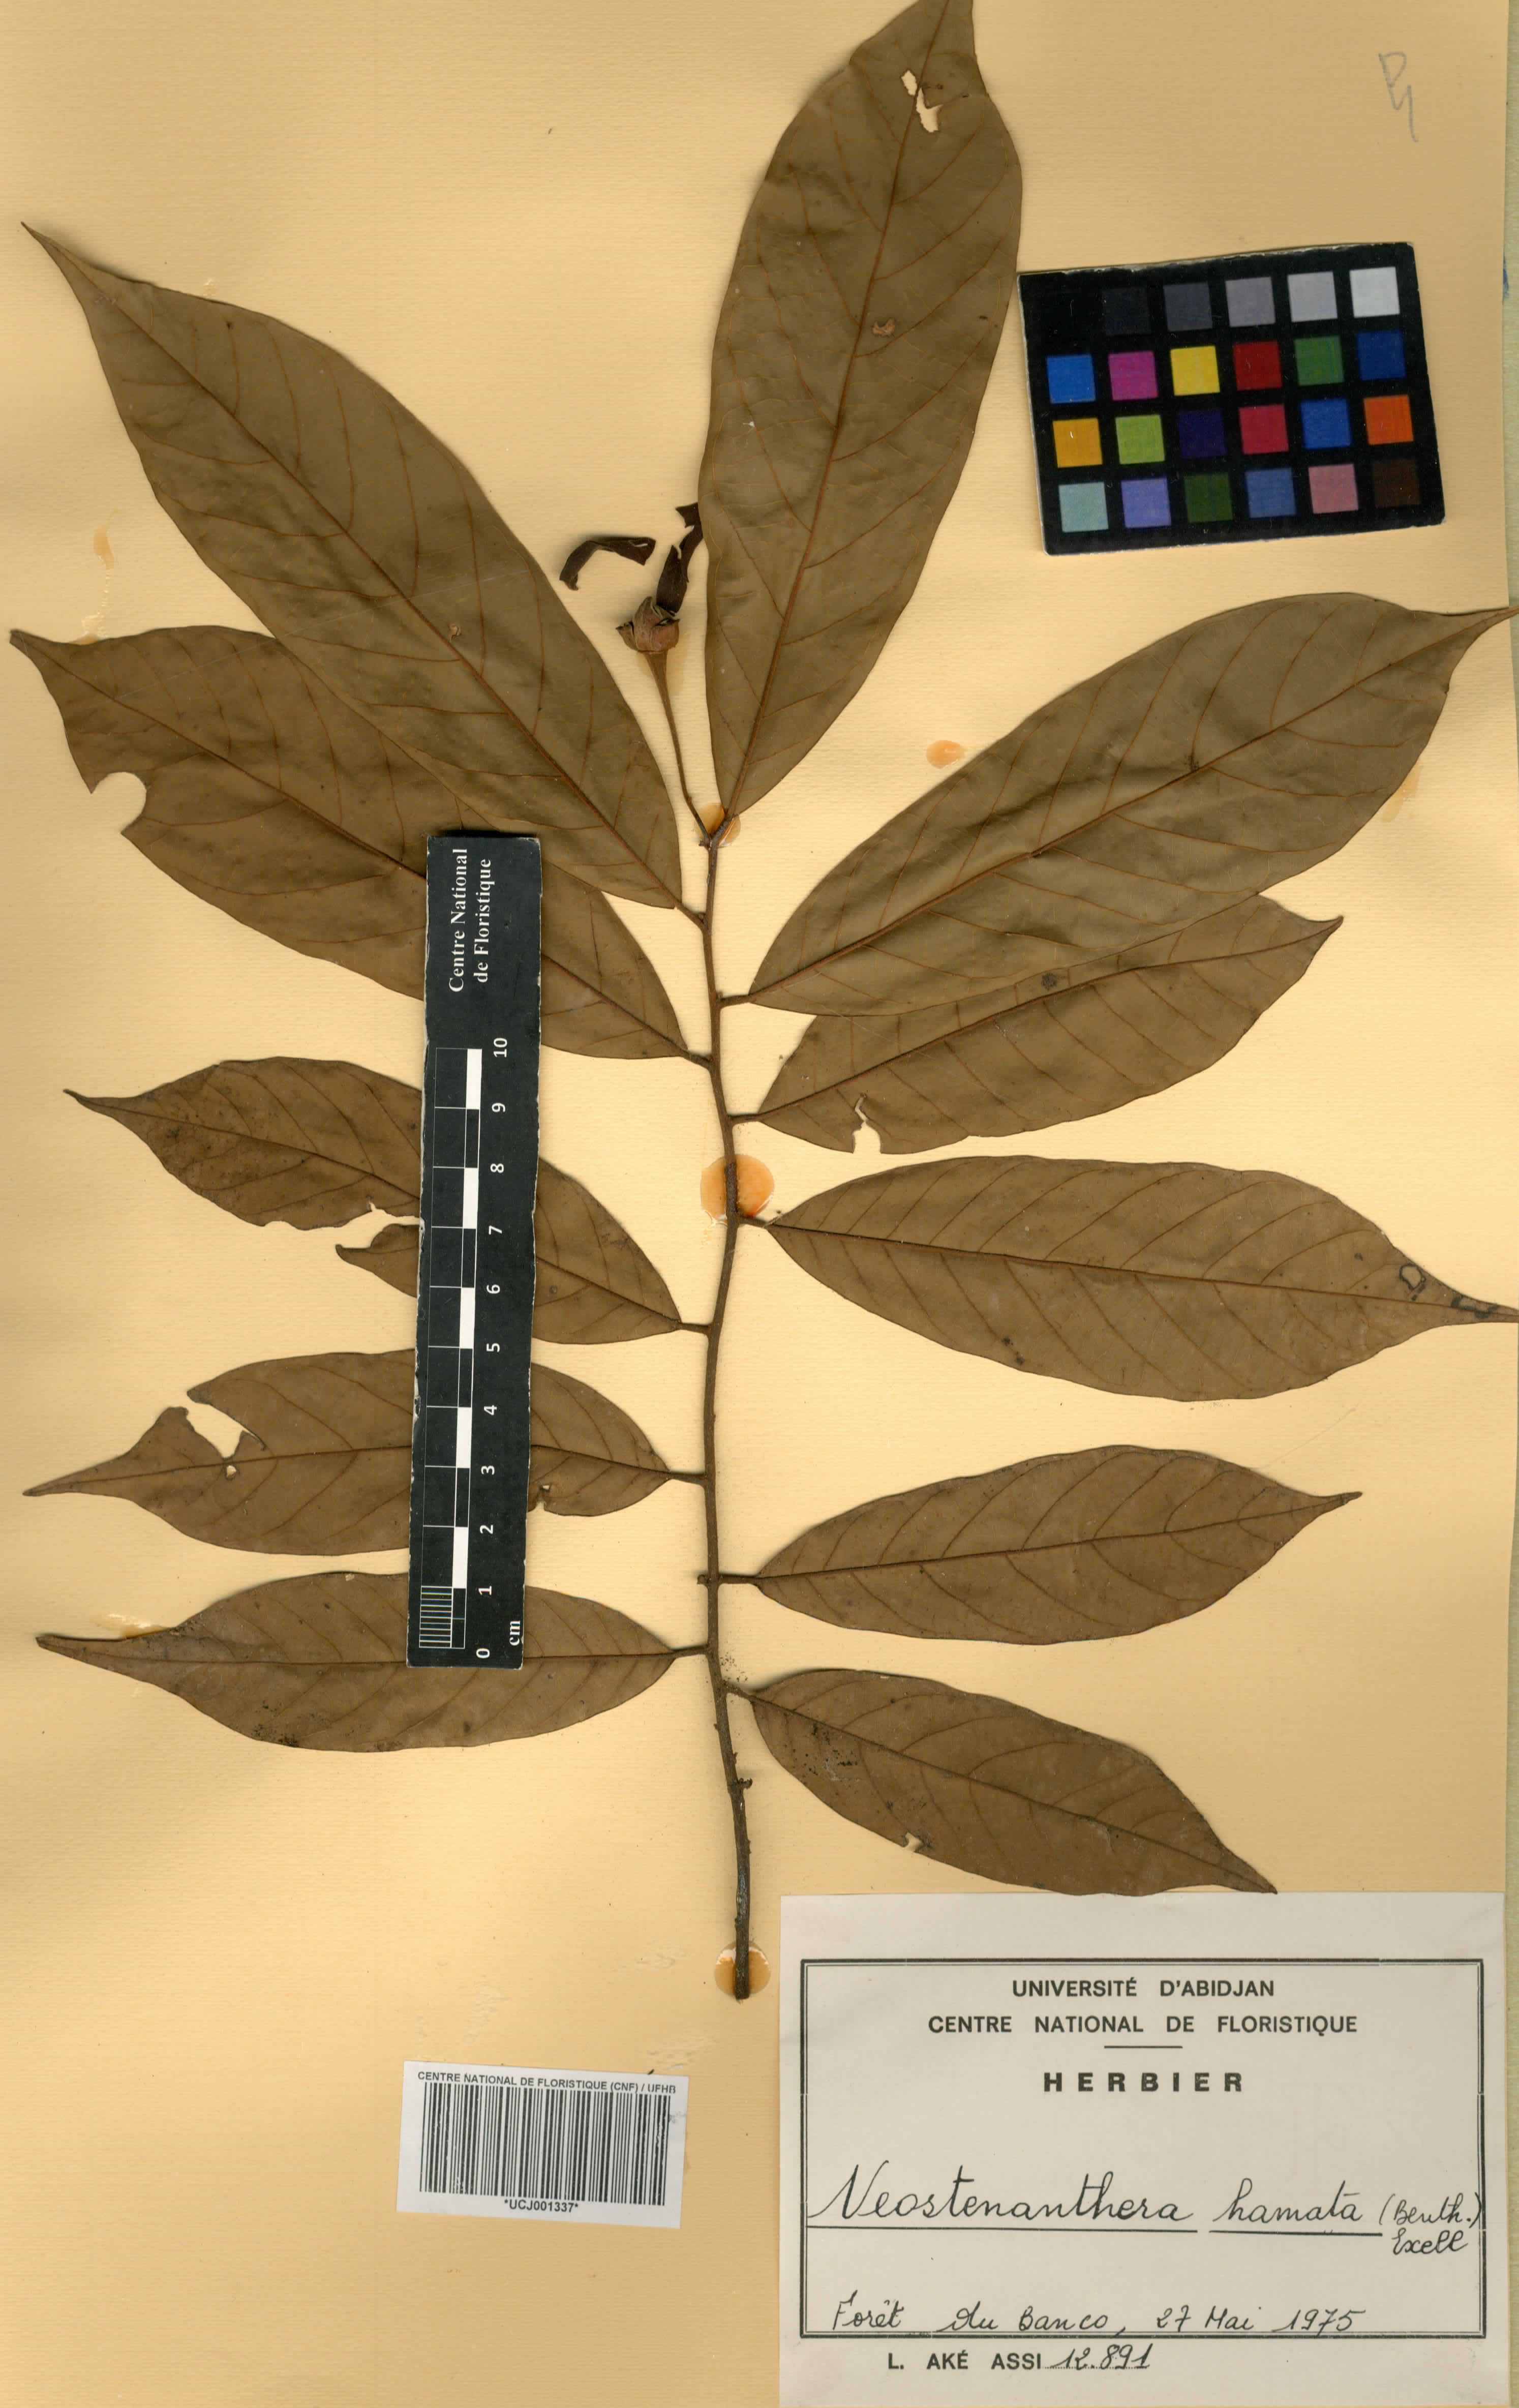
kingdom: Plantae
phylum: Tracheophyta
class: Magnoliopsida
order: Magnoliales
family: Annonaceae
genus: Neostenanthera
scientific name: Neostenanthera hamata
